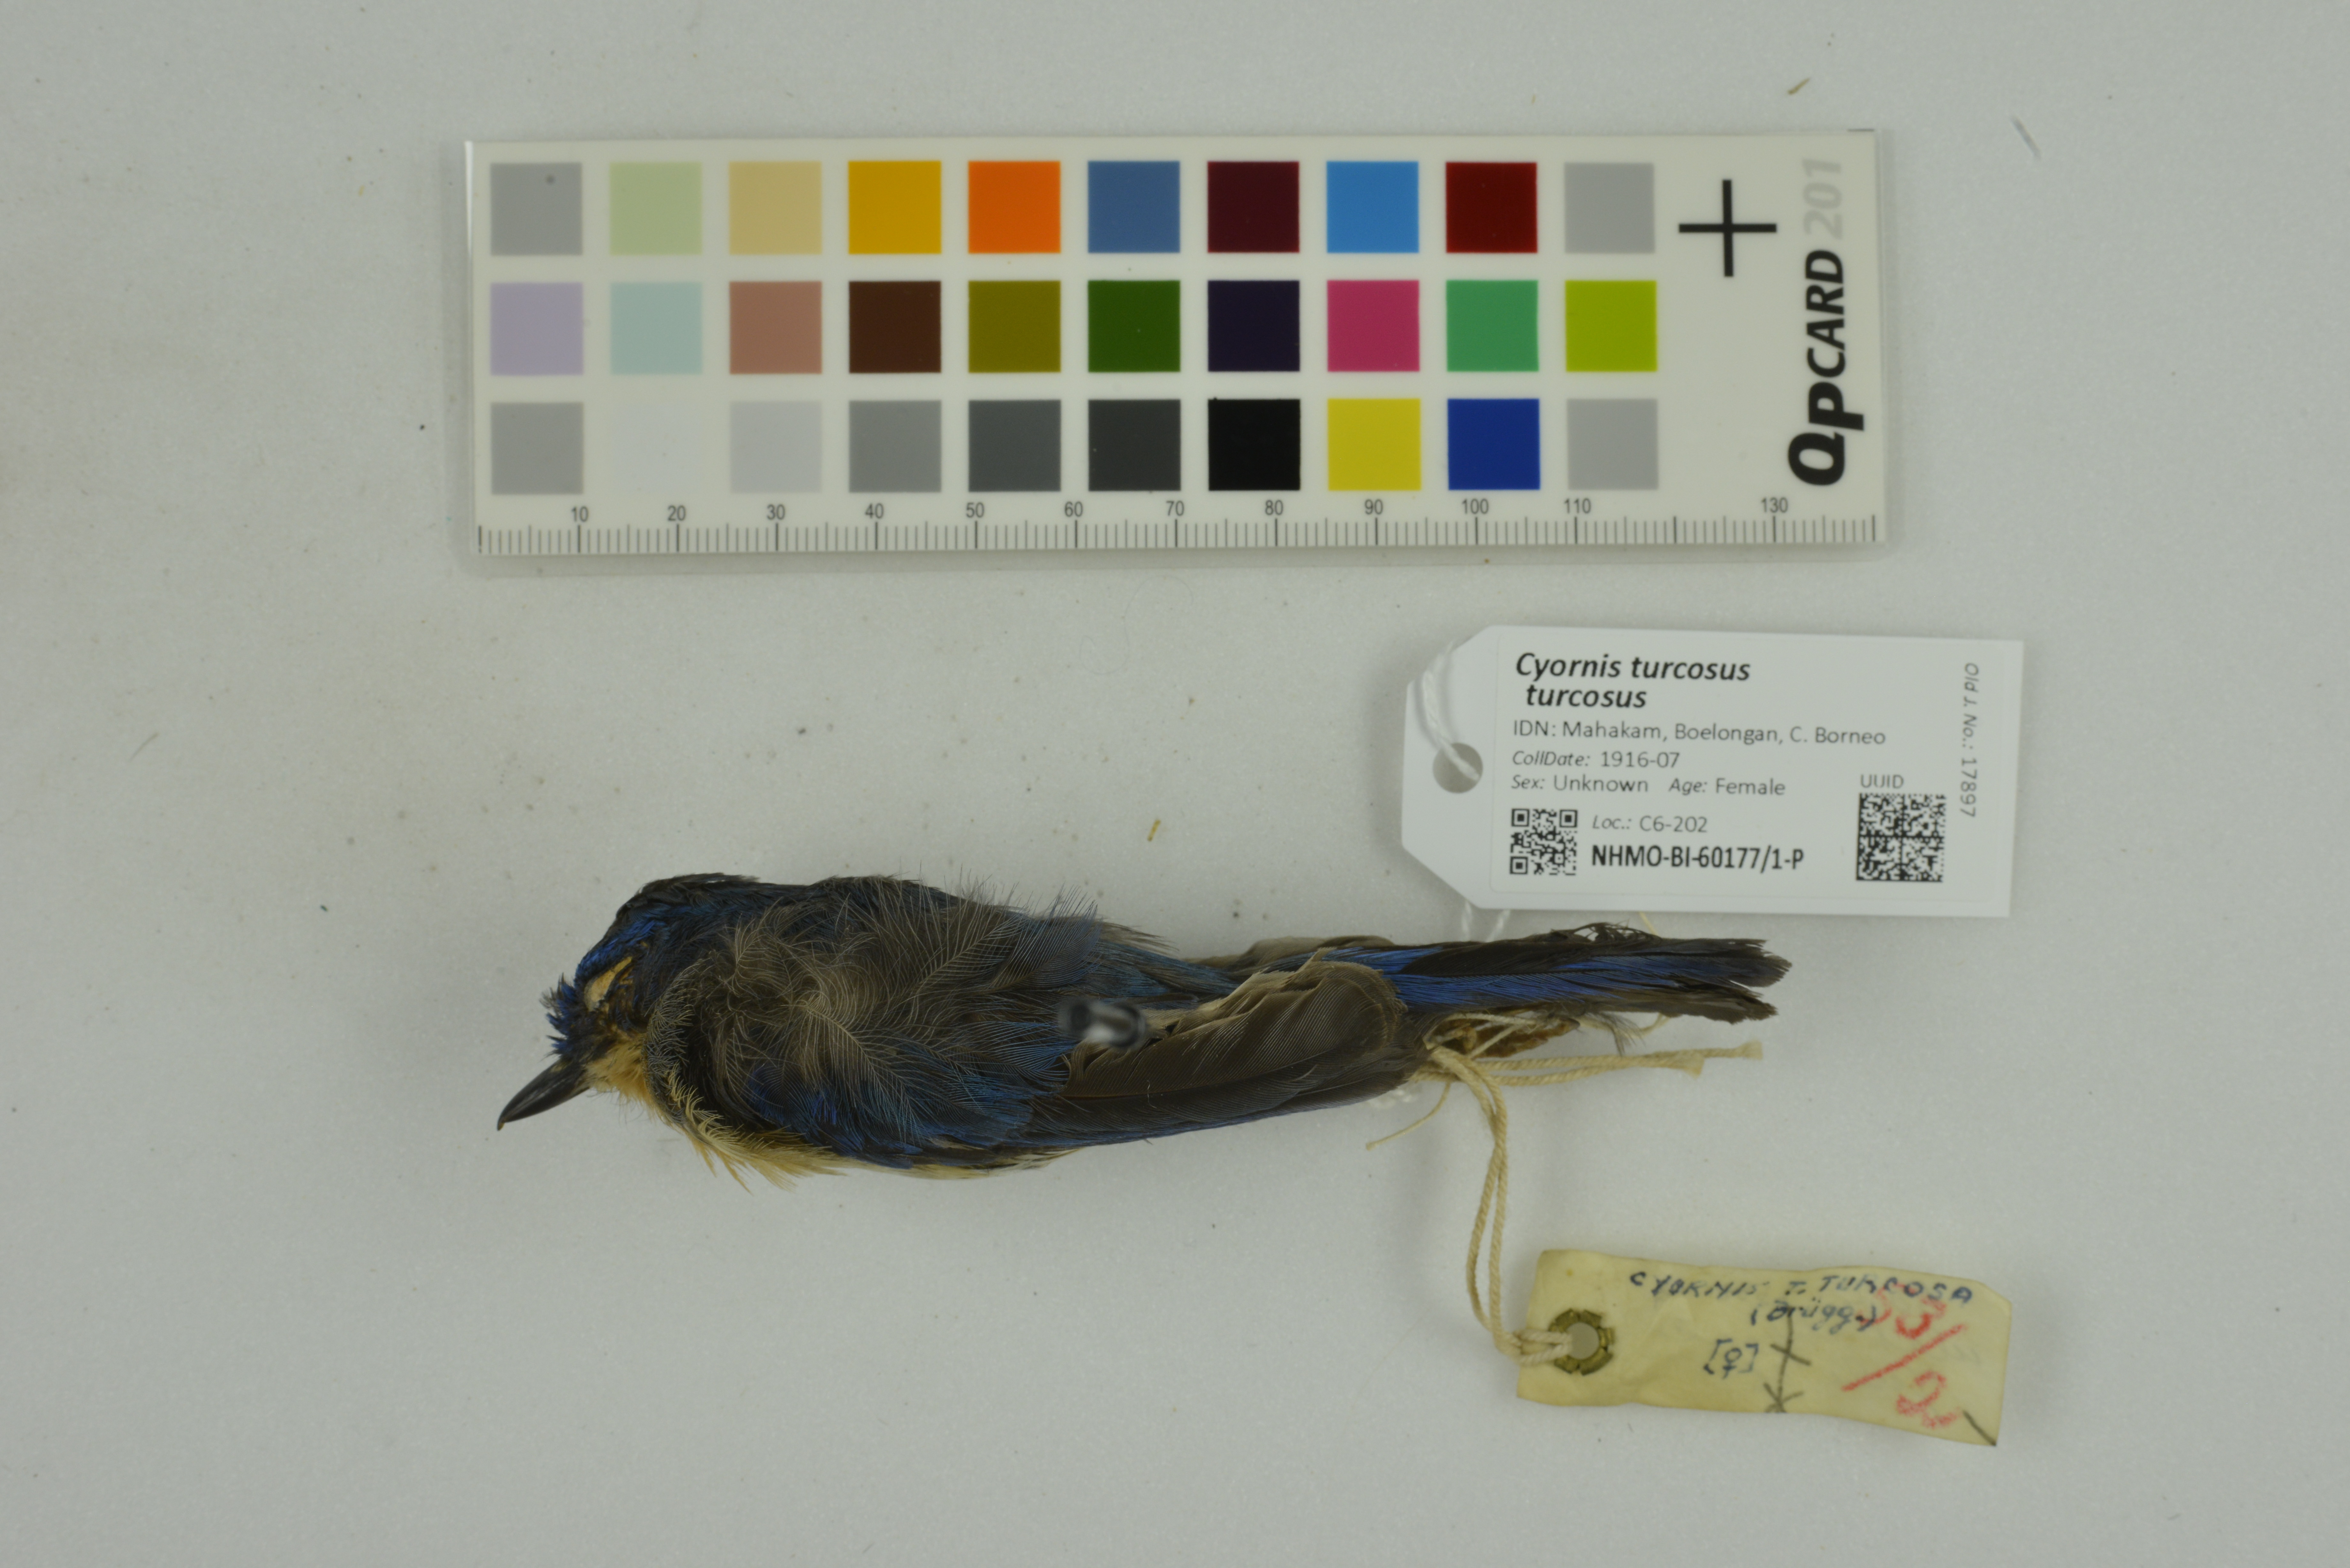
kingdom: Animalia
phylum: Chordata
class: Aves
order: Passeriformes
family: Muscicapidae
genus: Cyornis
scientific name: Cyornis turcosus
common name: Malaysian blue flycatcher
